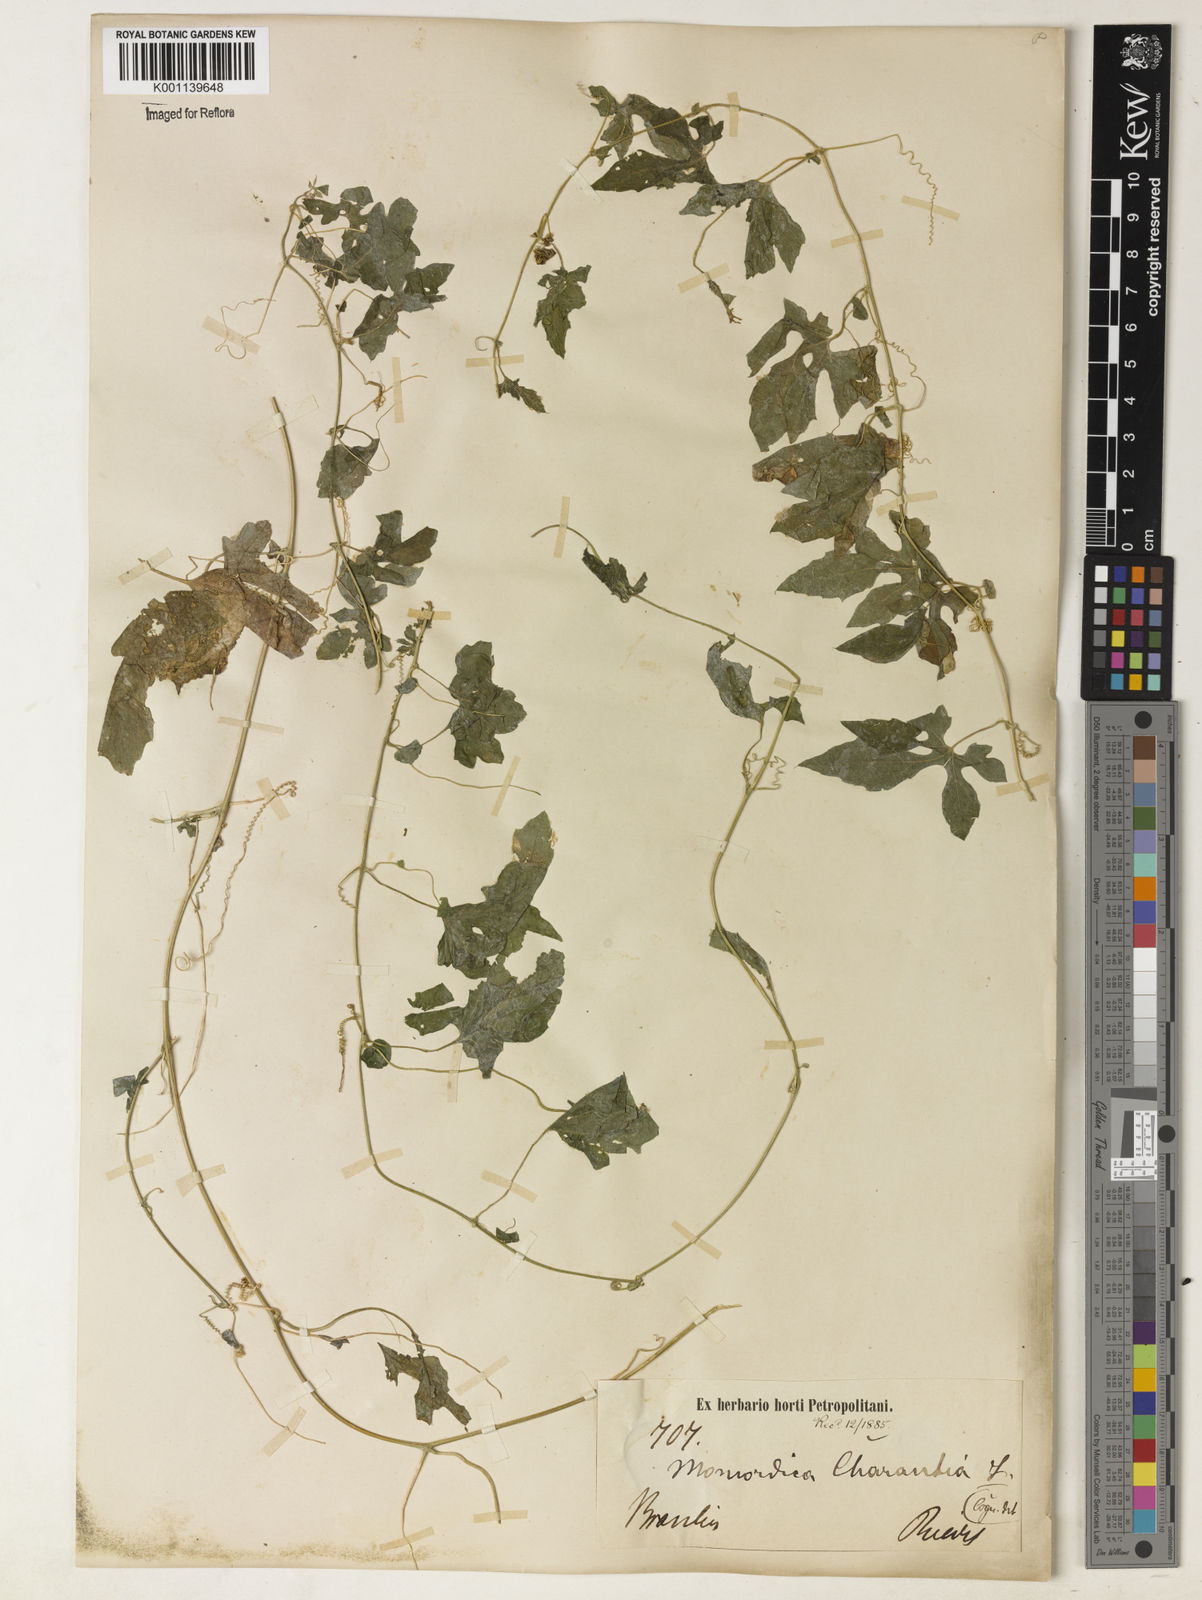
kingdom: Plantae
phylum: Tracheophyta
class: Magnoliopsida
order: Cucurbitales
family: Cucurbitaceae
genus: Momordica
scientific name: Momordica charantia
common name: Balsampear
